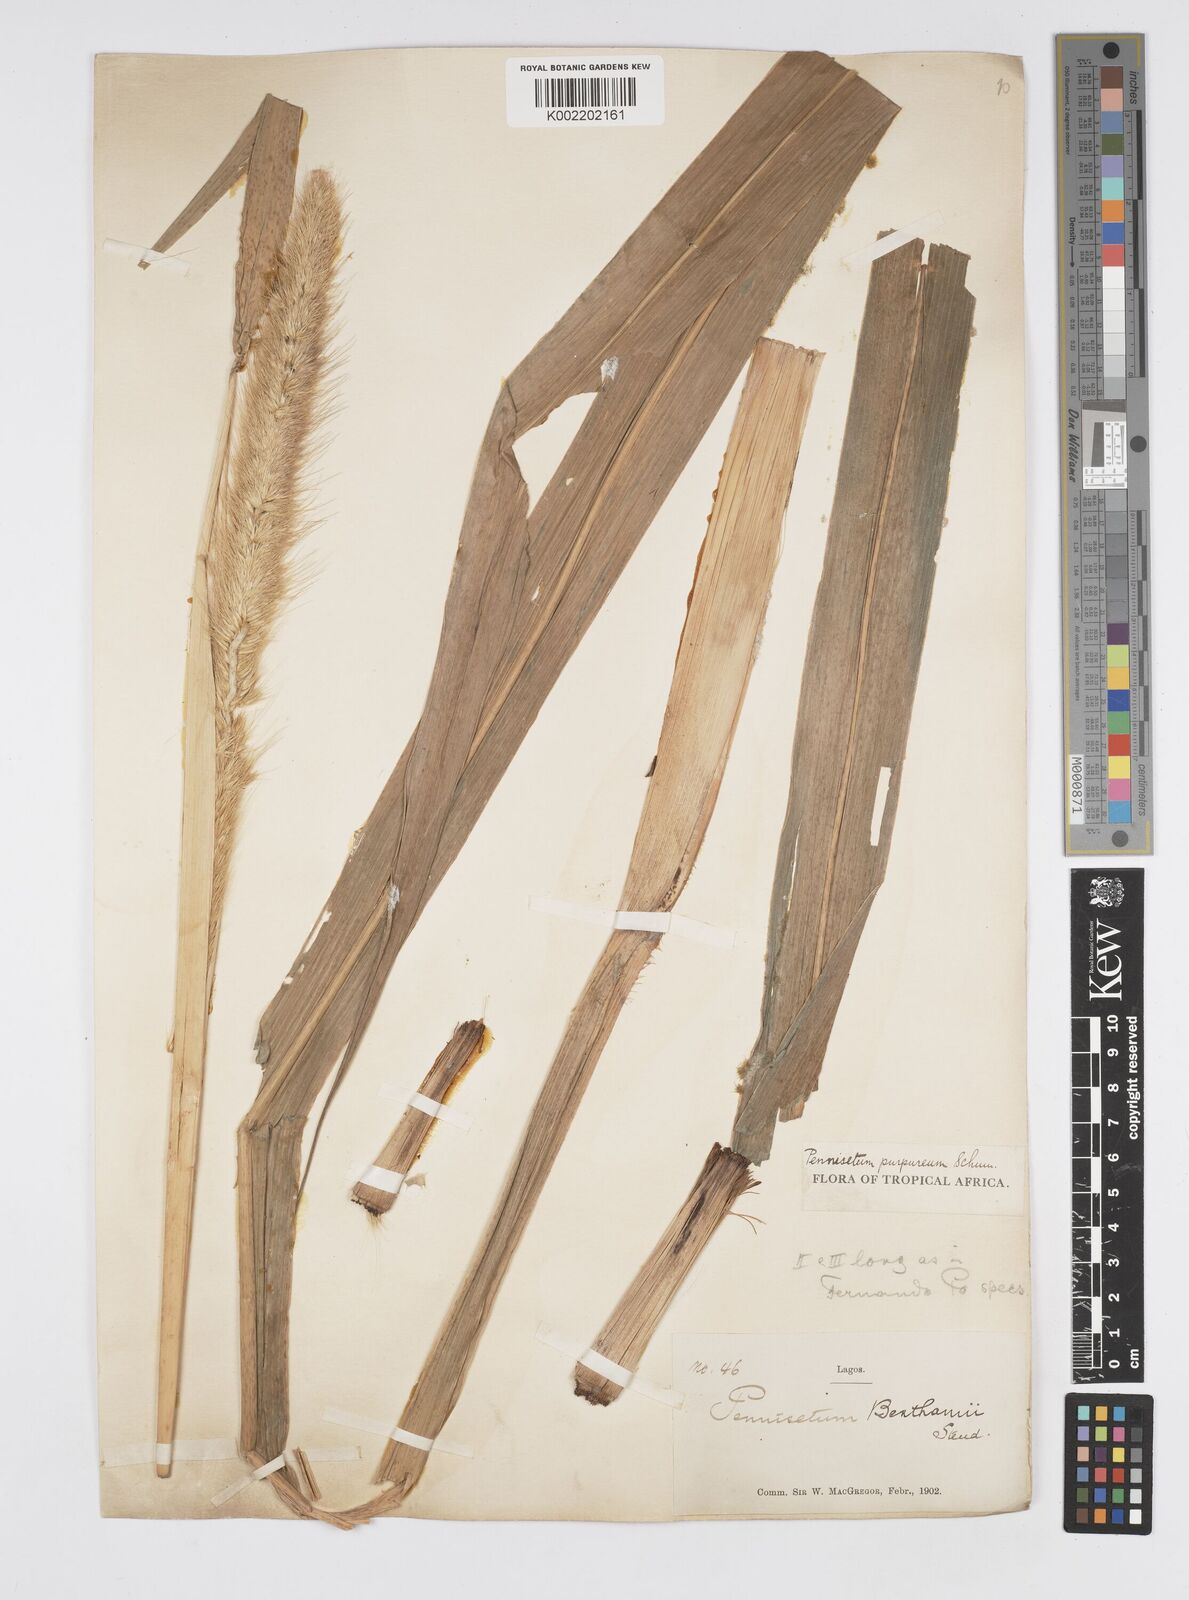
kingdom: Plantae
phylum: Tracheophyta
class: Liliopsida
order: Poales
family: Poaceae
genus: Cenchrus
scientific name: Cenchrus purpureus
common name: Elephant grass
